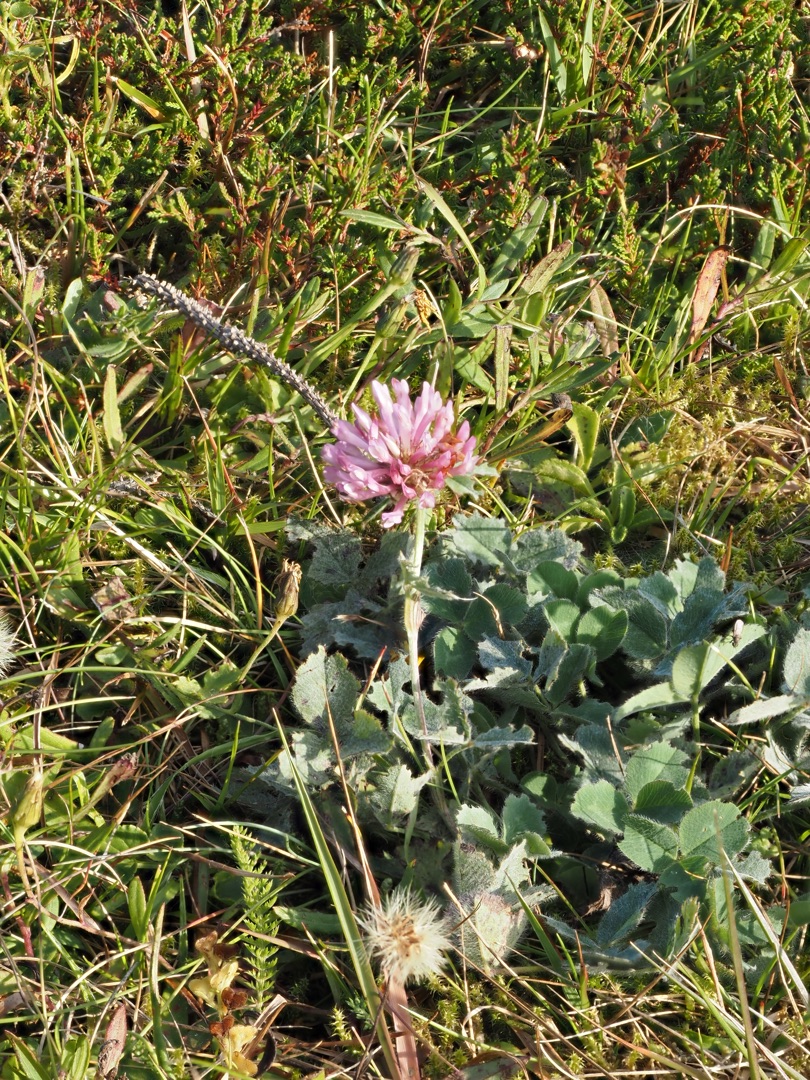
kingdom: Plantae
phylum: Tracheophyta
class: Magnoliopsida
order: Fabales
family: Fabaceae
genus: Trifolium
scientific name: Trifolium pratense
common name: Rød-kløver
